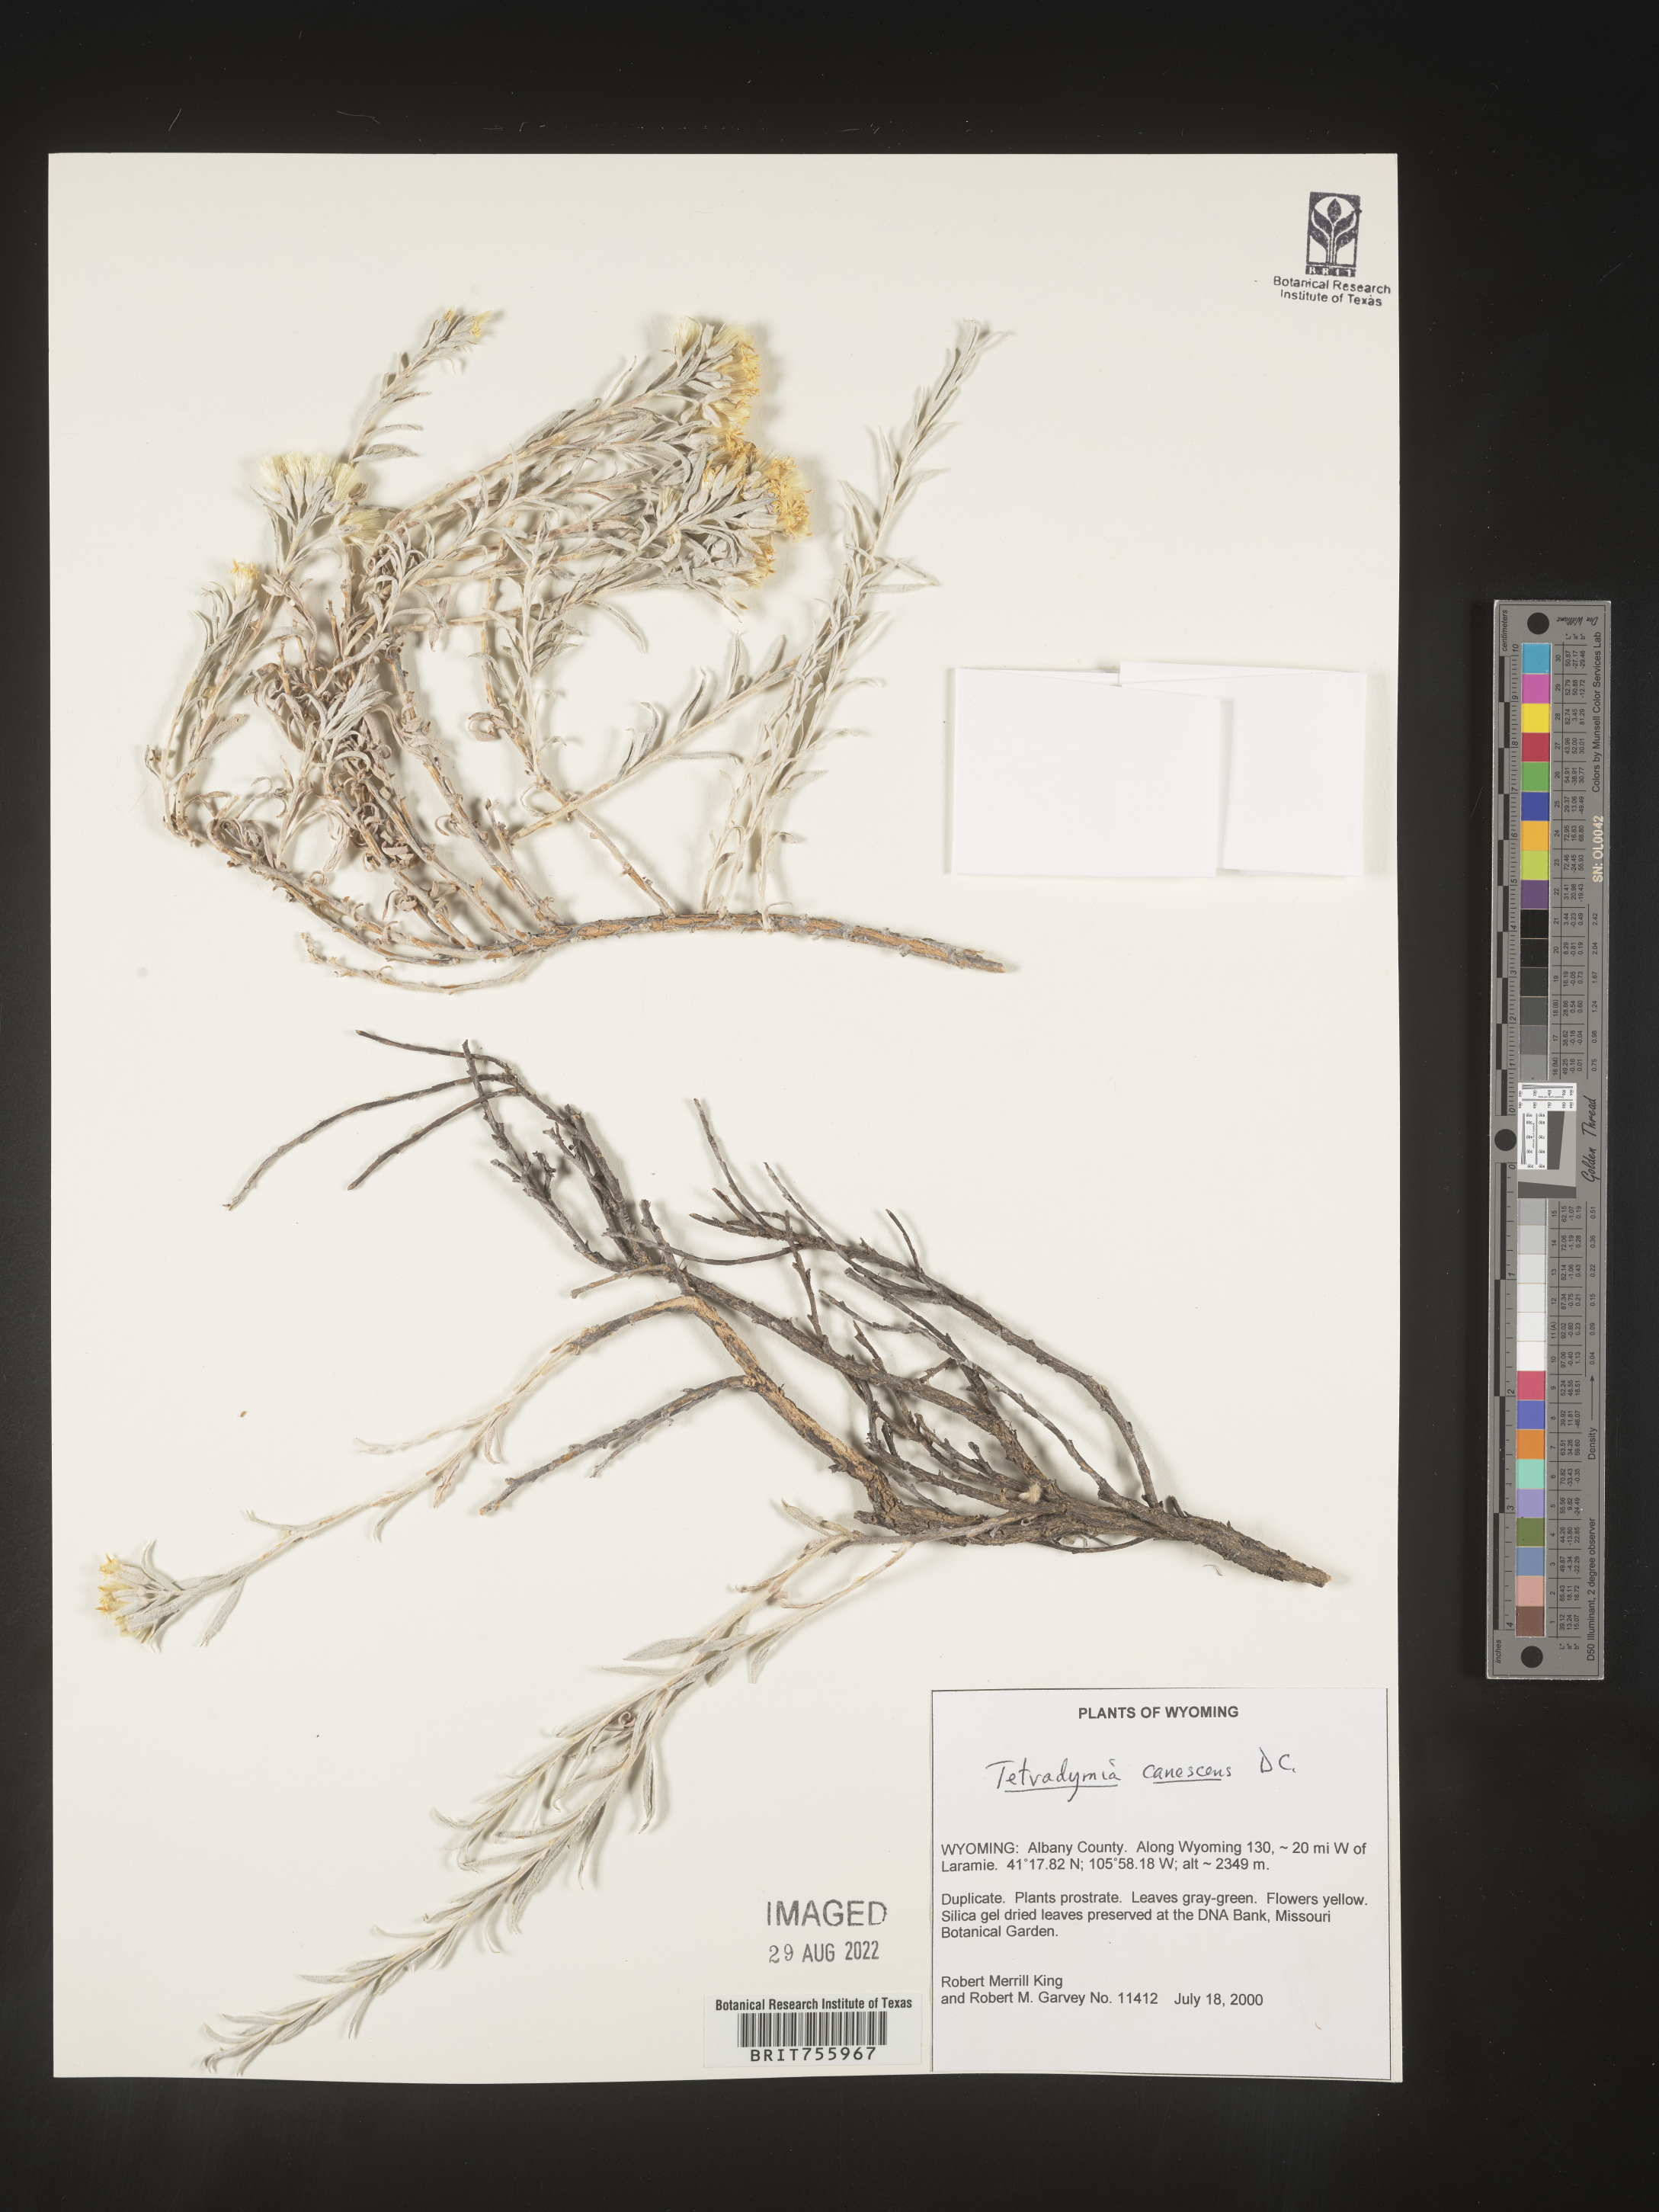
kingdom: Plantae
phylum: Tracheophyta
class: Magnoliopsida
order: Asterales
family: Asteraceae
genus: Tetradymia
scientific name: Tetradymia canescens
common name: Spineless horsebrush
